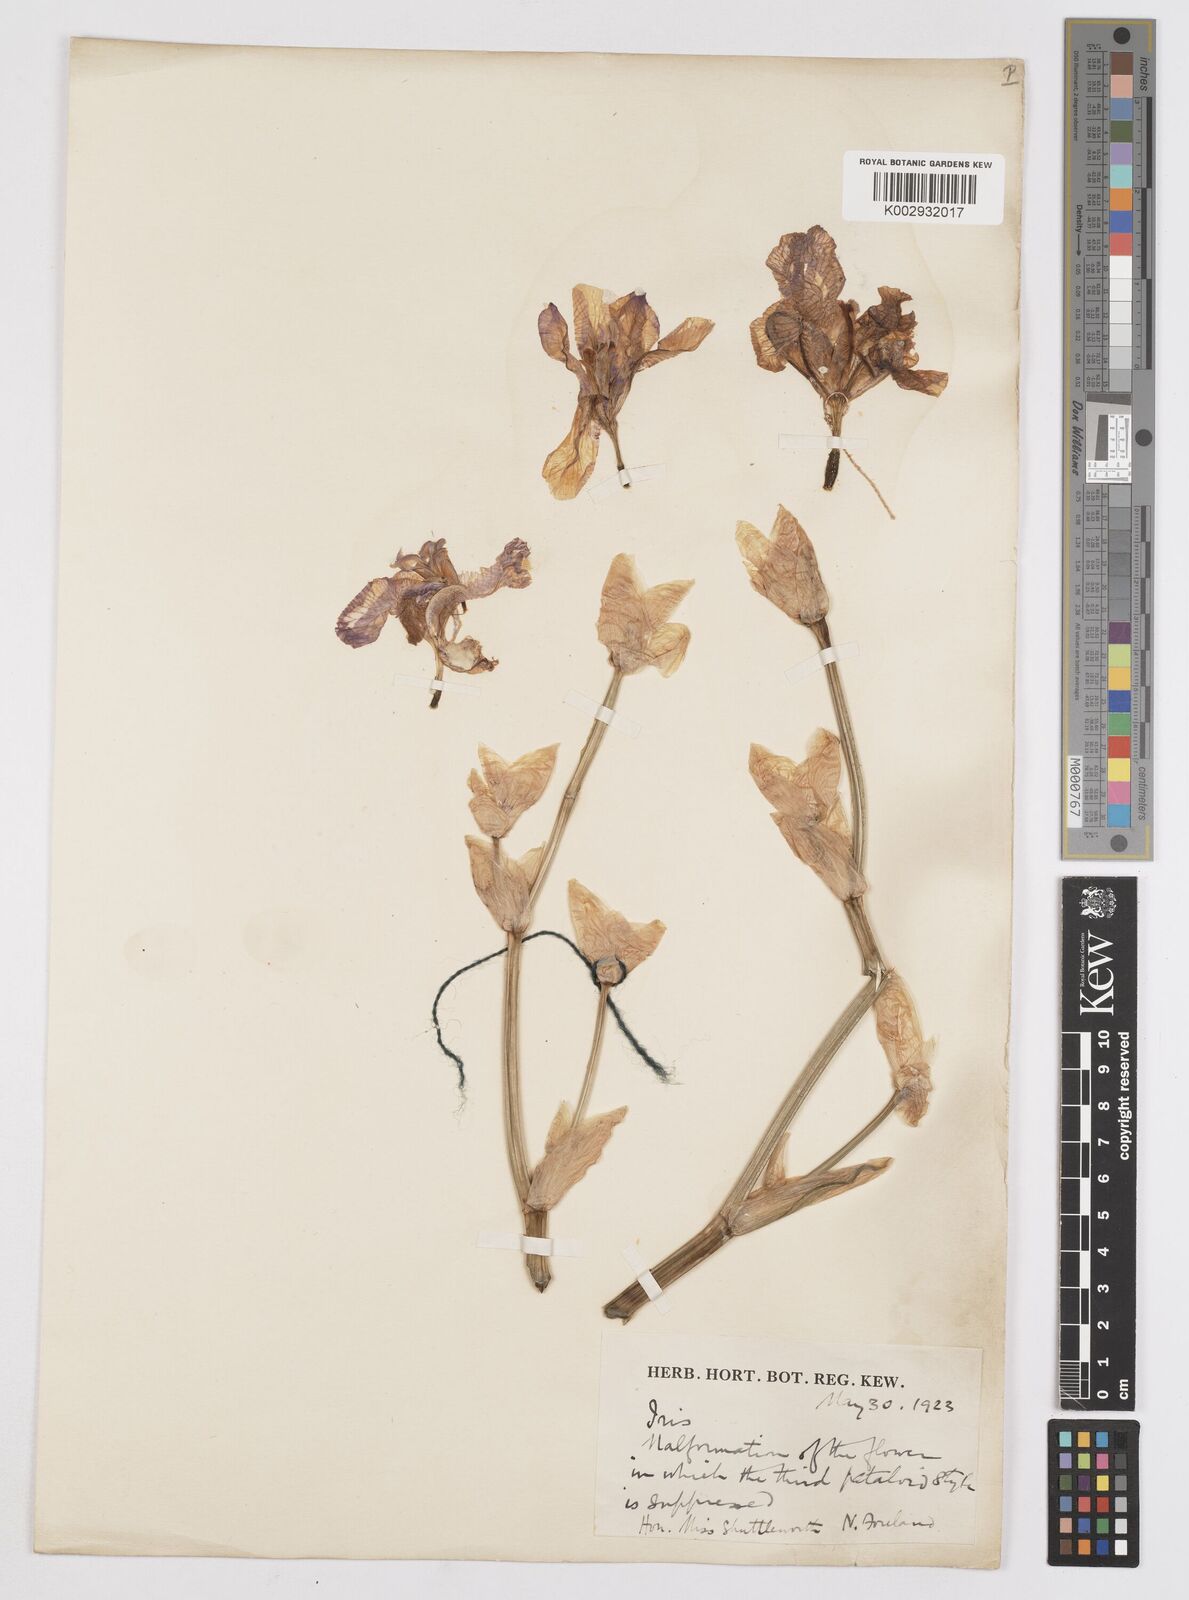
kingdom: Plantae
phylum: Tracheophyta
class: Liliopsida
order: Asparagales
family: Iridaceae
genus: Iris
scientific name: Iris germanica
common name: German iris
